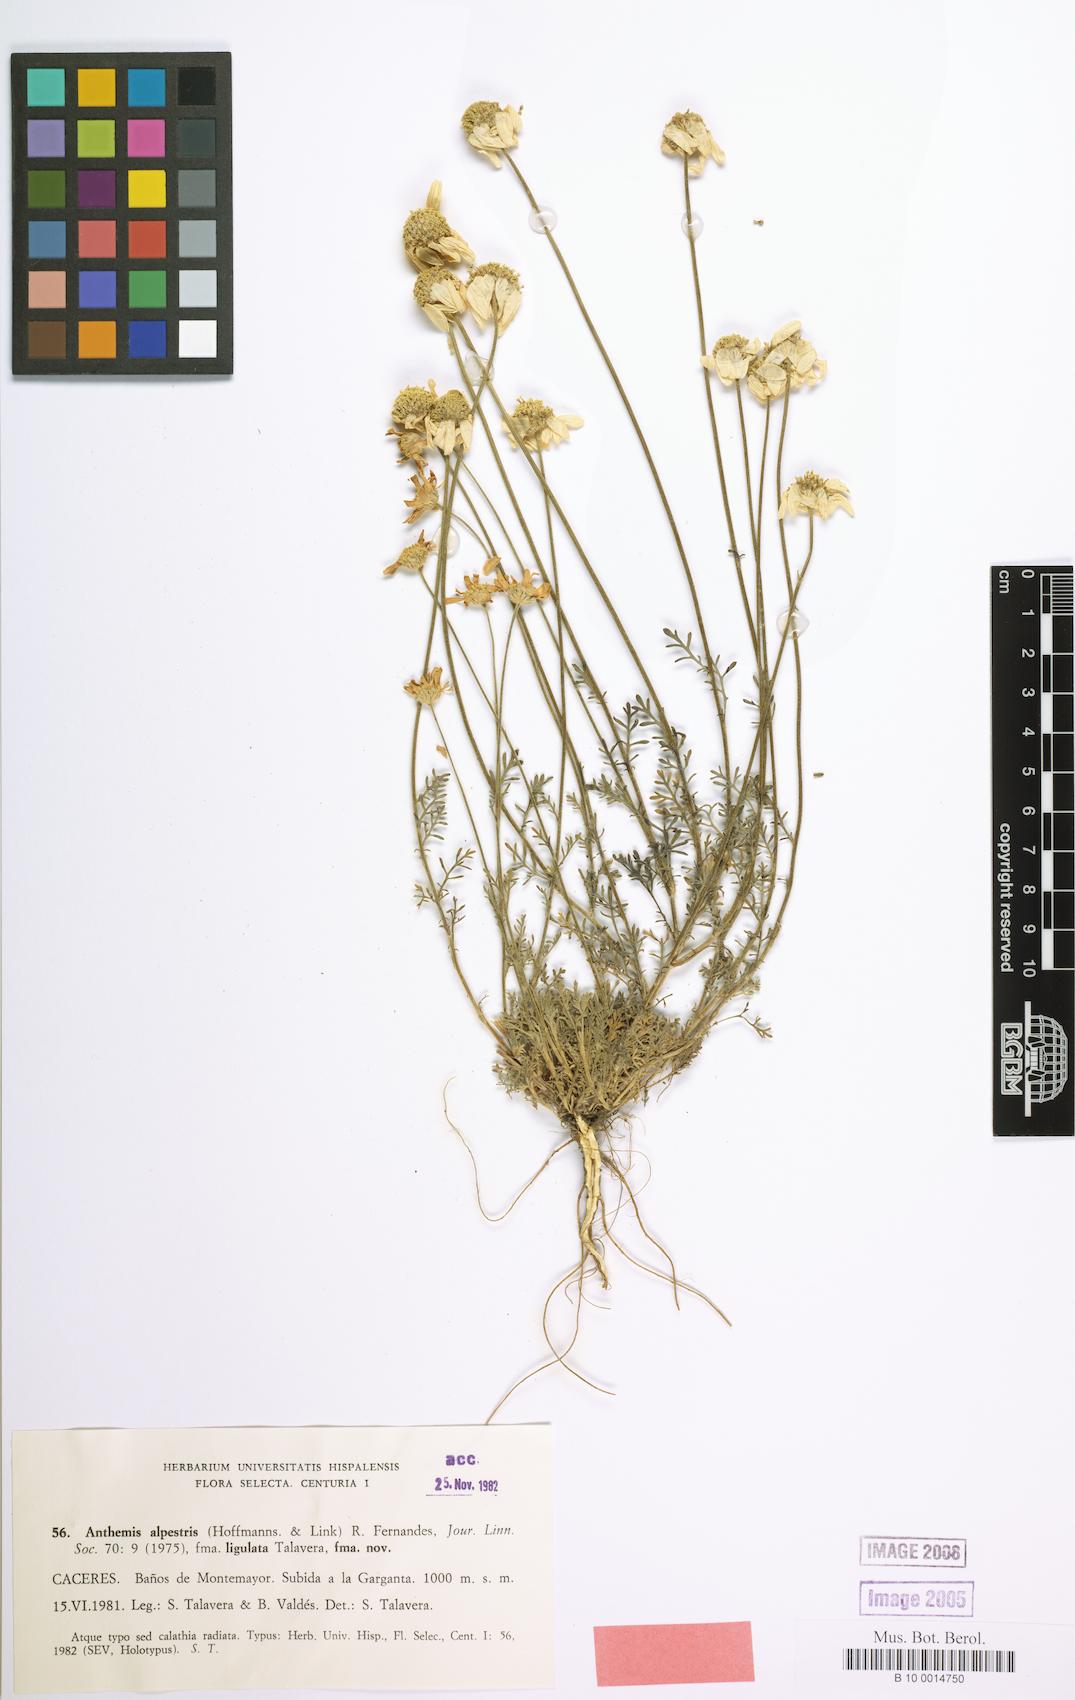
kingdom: Plantae
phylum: Tracheophyta
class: Magnoliopsida
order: Asterales
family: Asteraceae
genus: Anthemis
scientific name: Anthemis alpestris
